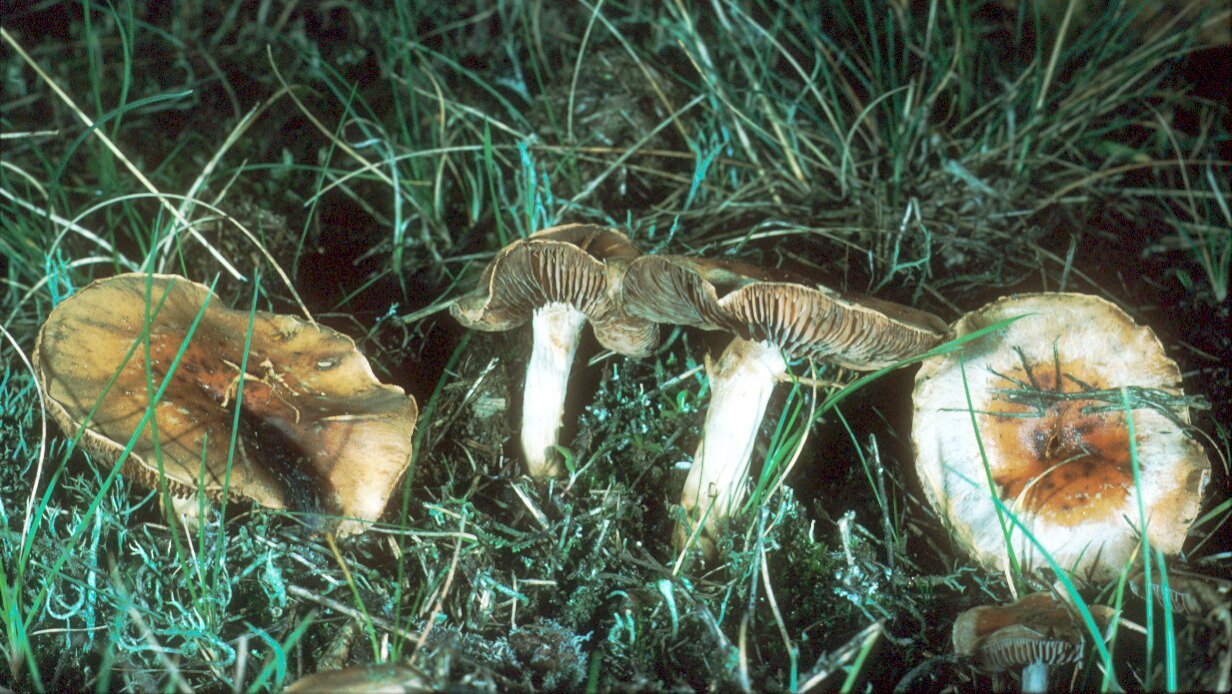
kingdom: Fungi
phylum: Basidiomycota
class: Agaricomycetes
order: Agaricales
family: Hymenogastraceae
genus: Hebeloma
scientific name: Hebeloma mesophaeum
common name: lerbrun tåreblad
